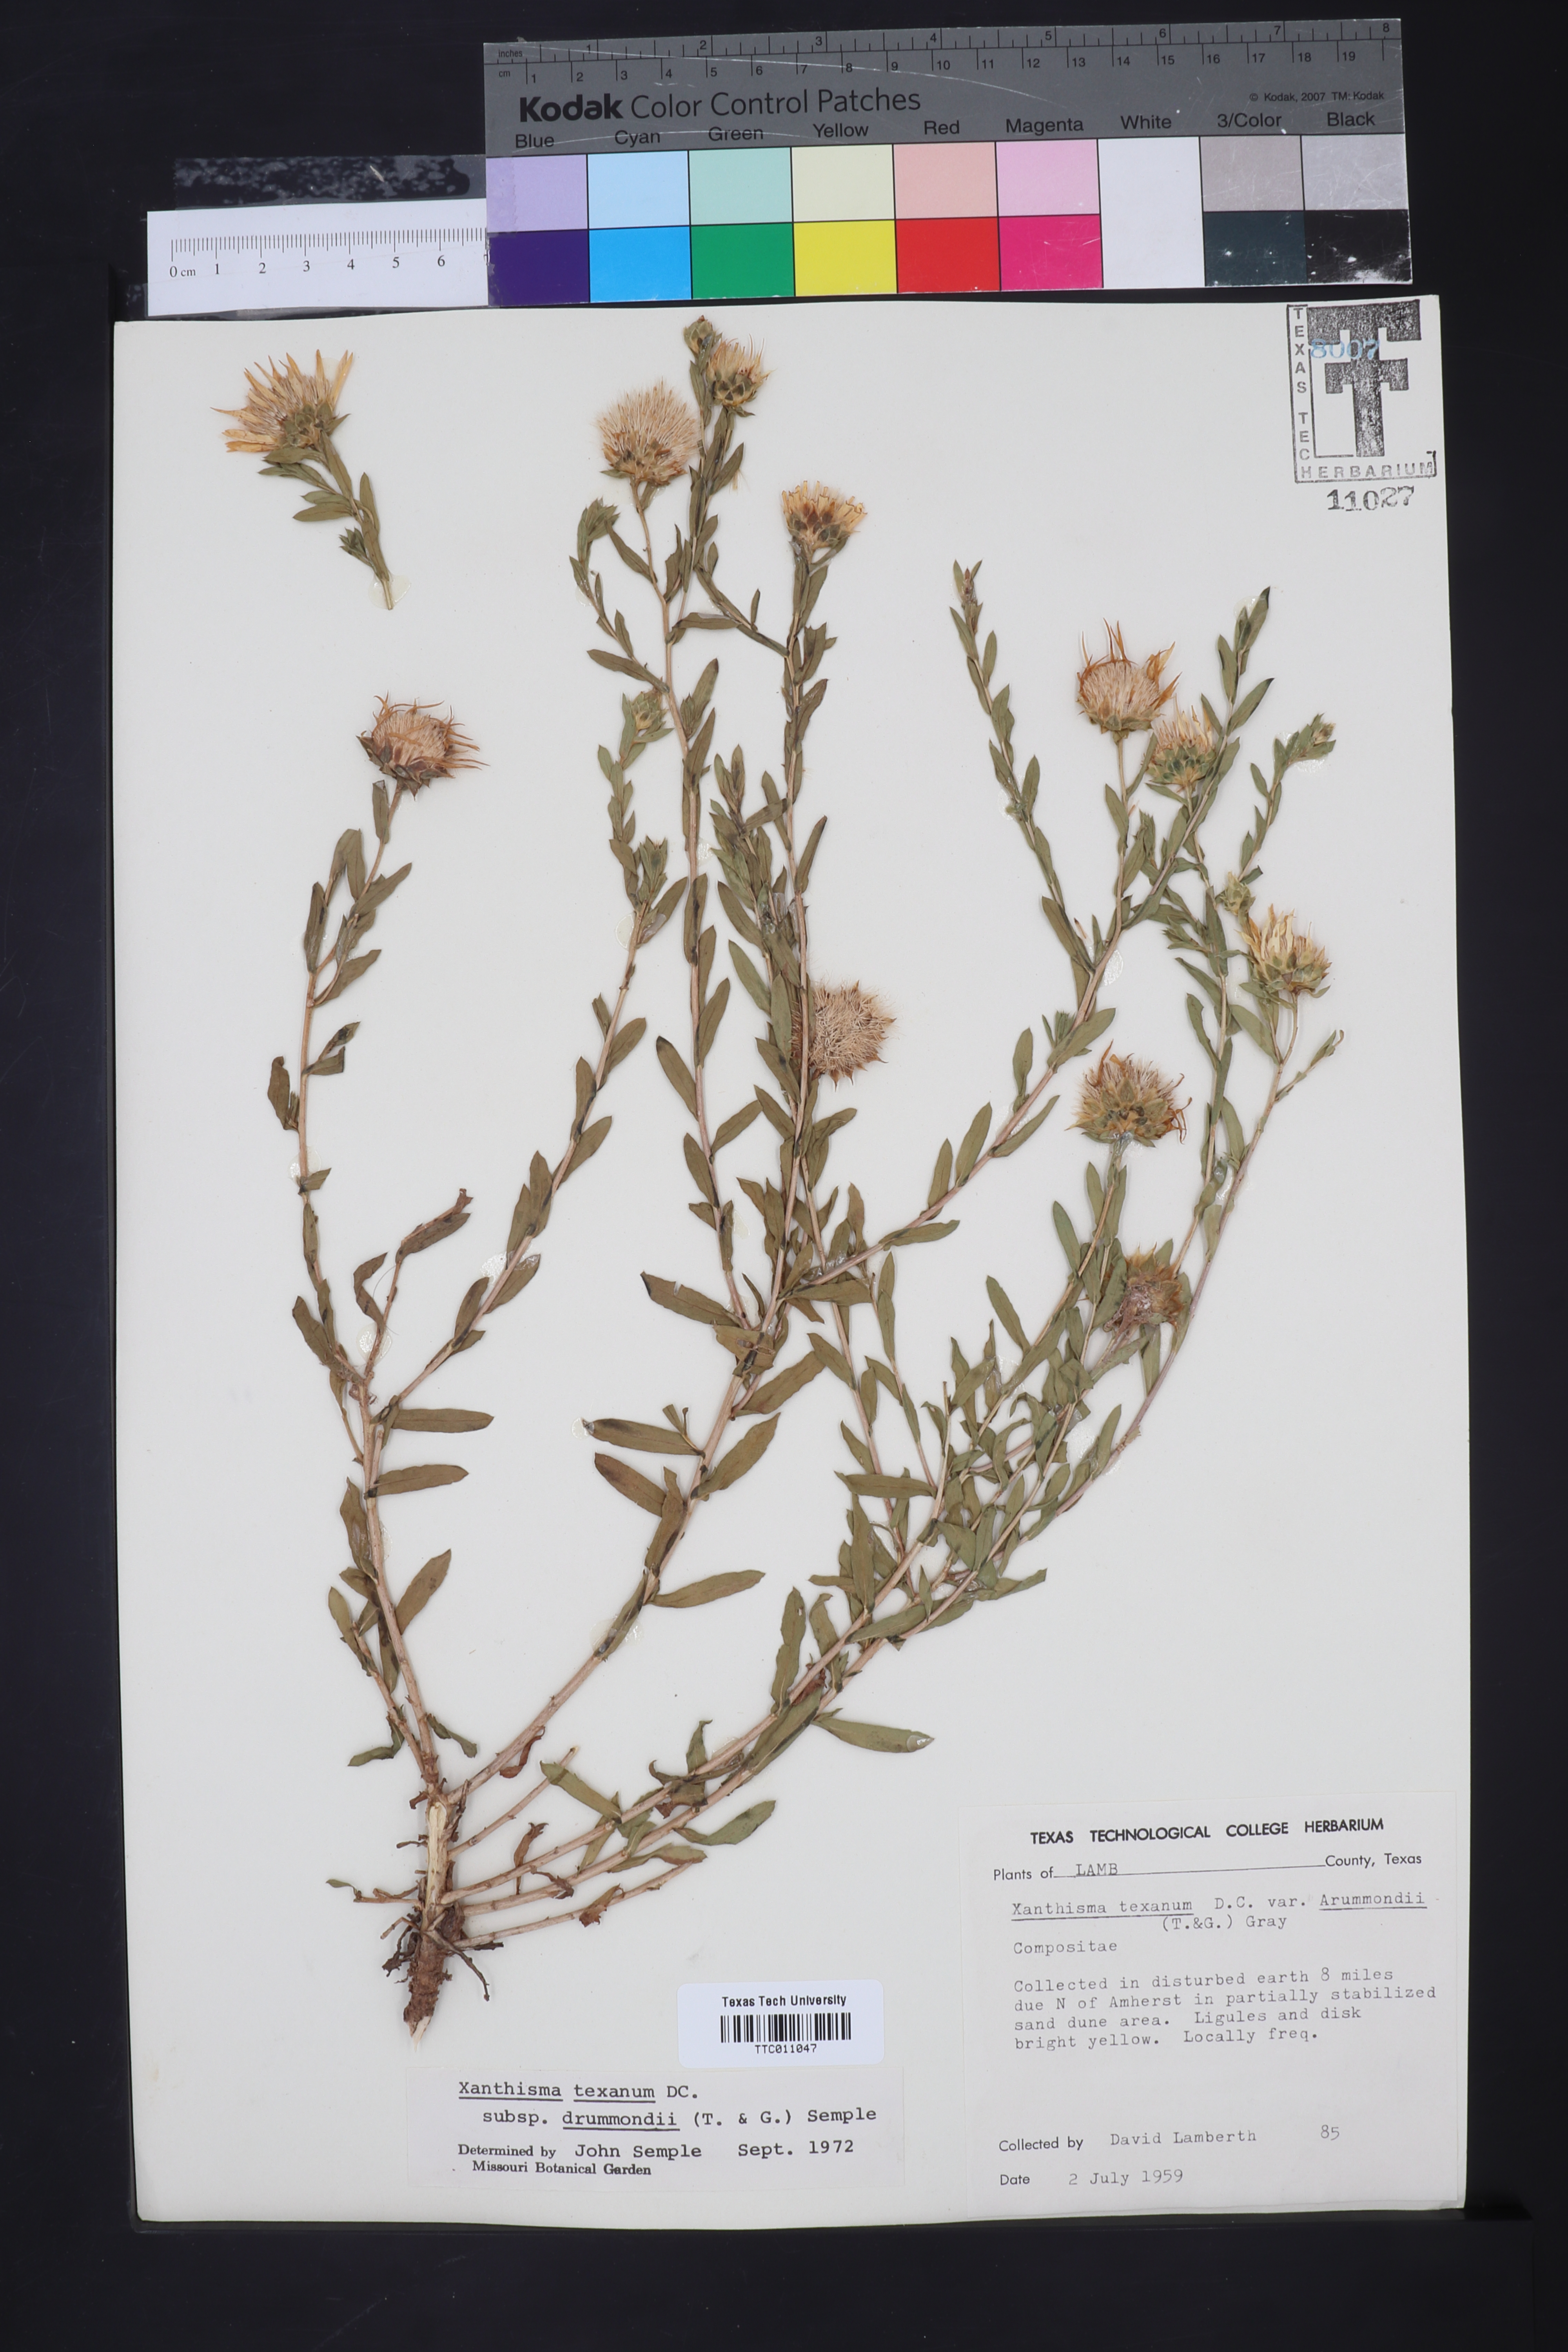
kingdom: Plantae
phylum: Tracheophyta
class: Magnoliopsida
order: Asterales
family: Asteraceae
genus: Xanthisma
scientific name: Xanthisma texanum
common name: Texas sleepy daisy
